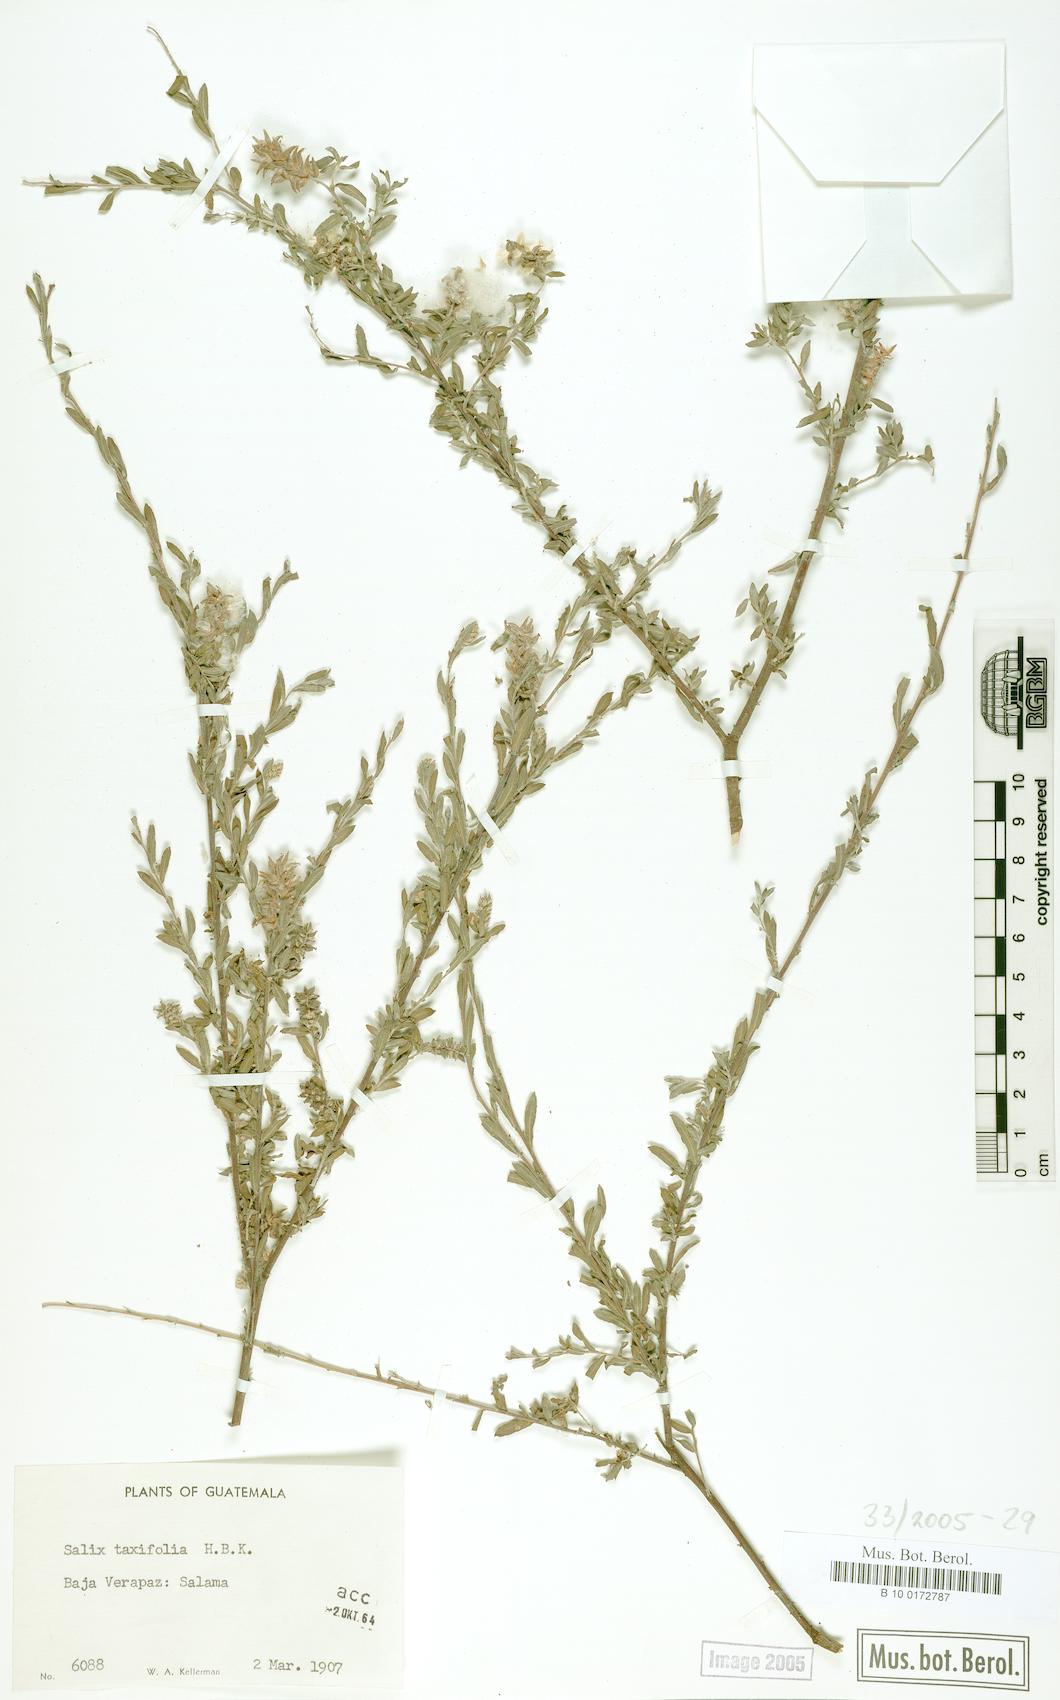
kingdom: Plantae
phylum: Tracheophyta
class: Magnoliopsida
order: Malpighiales
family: Salicaceae
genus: Salix
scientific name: Salix taxifolia
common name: Yew-leaf willow
